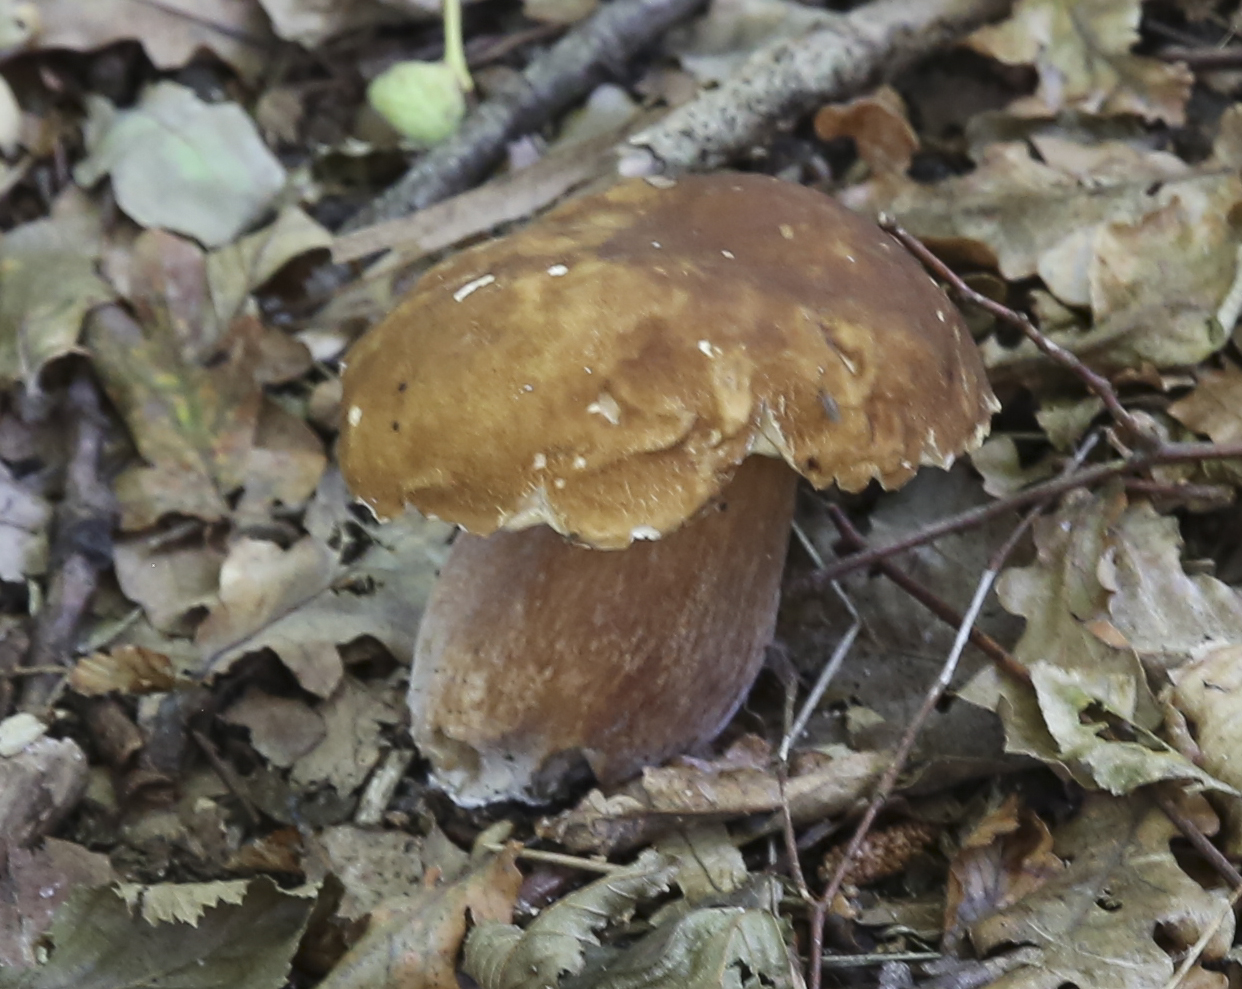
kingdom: Fungi
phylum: Basidiomycota
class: Agaricomycetes
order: Boletales
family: Boletaceae
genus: Boletus
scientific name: Boletus
